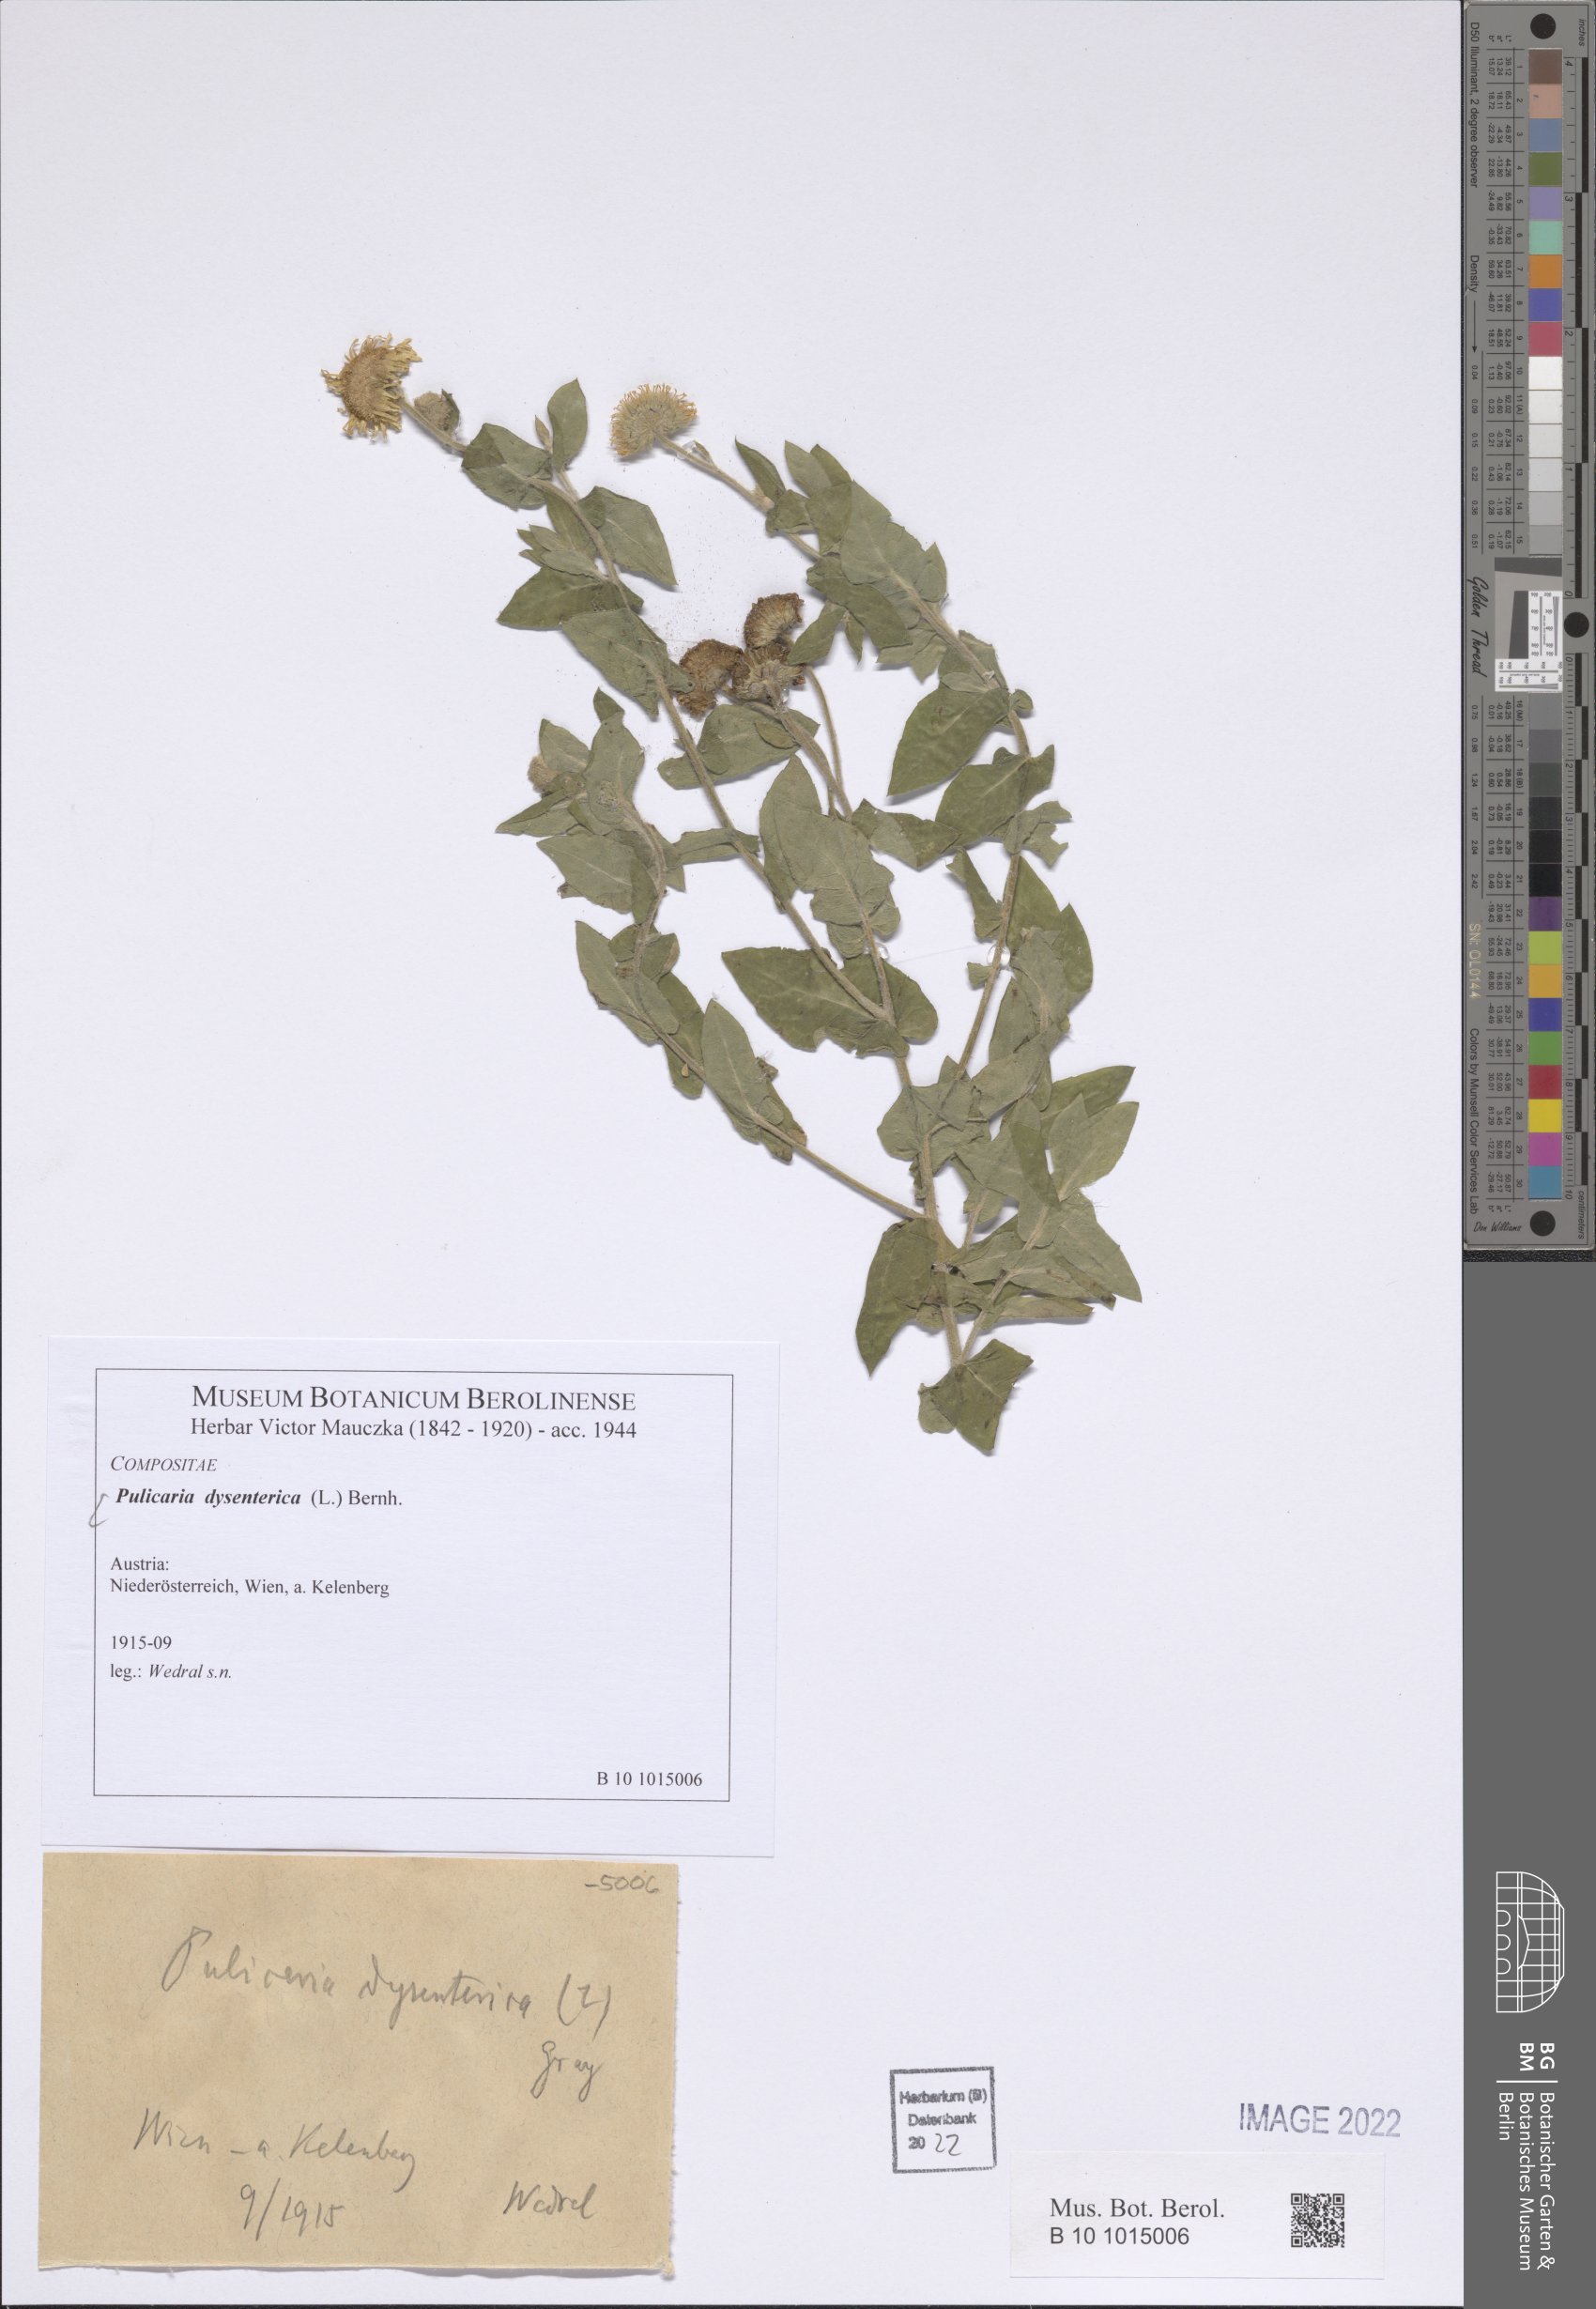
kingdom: Plantae
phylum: Tracheophyta
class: Magnoliopsida
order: Asterales
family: Asteraceae
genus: Pulicaria
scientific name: Pulicaria dysenterica
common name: Common fleabane
